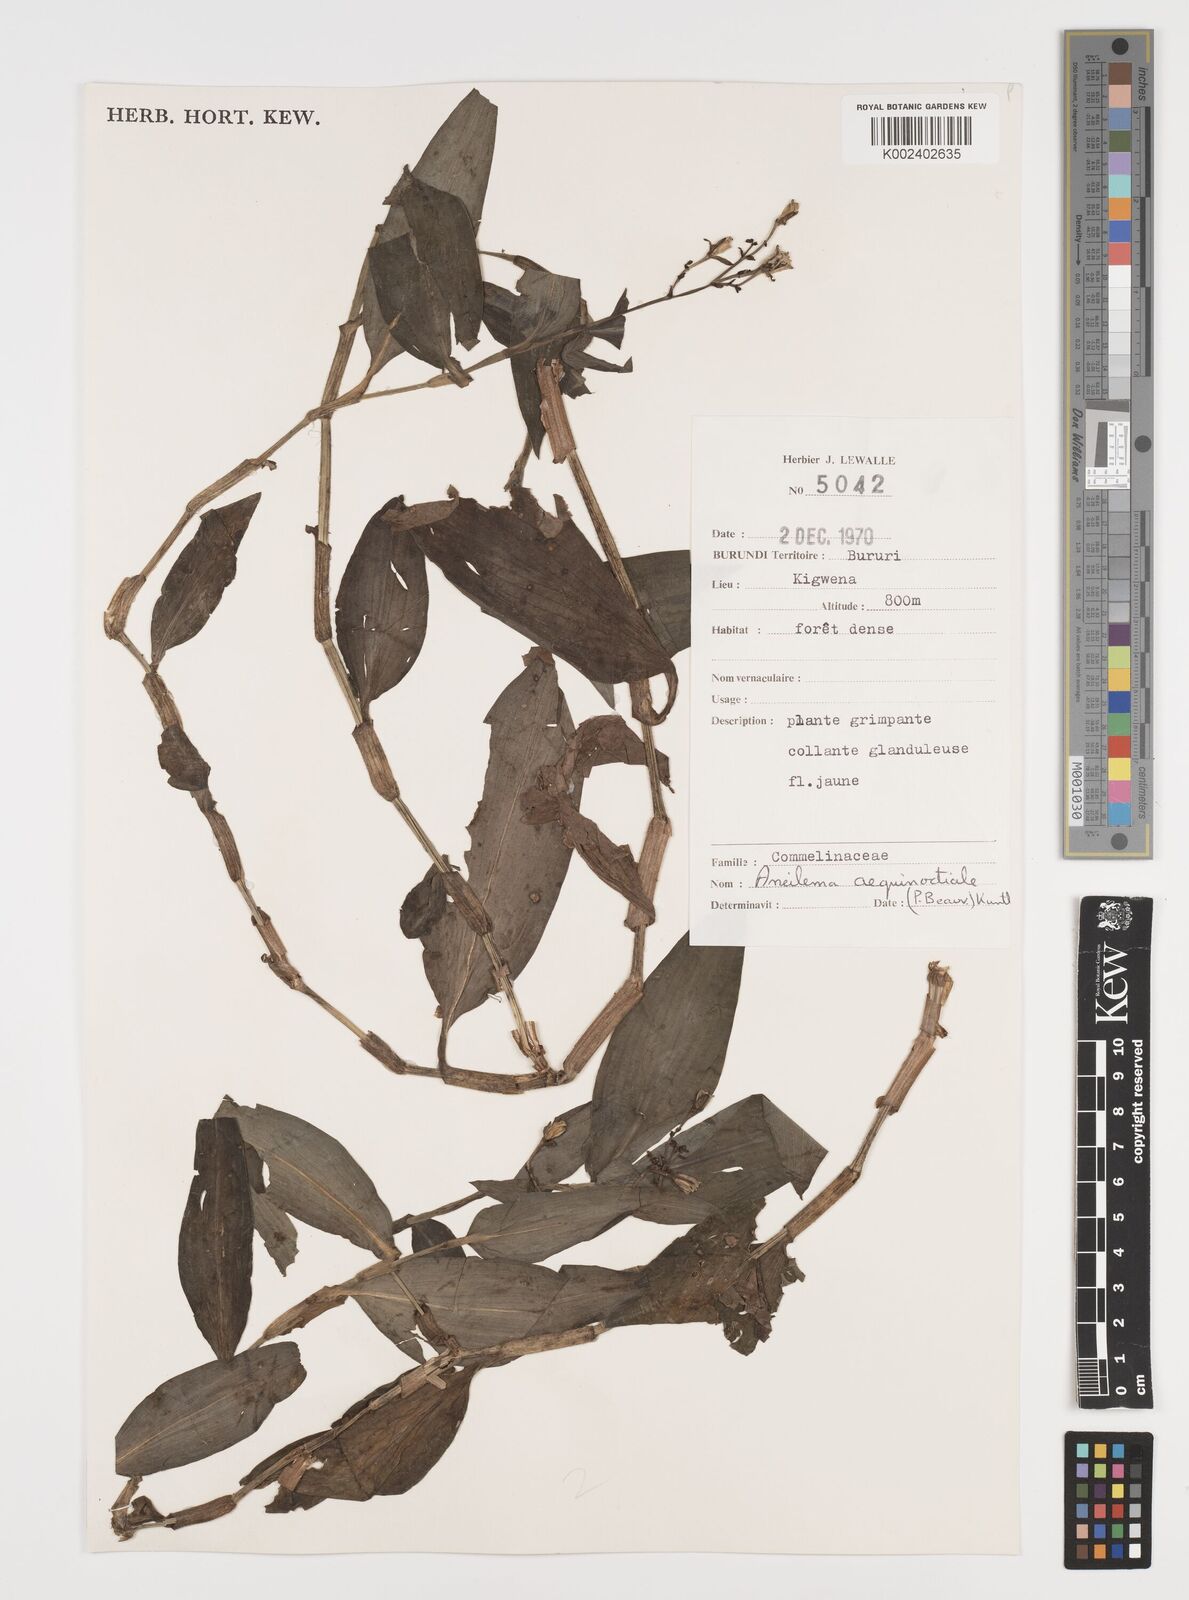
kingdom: Plantae
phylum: Tracheophyta
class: Liliopsida
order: Commelinales
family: Commelinaceae
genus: Aneilema
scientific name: Aneilema aequinoctiale
